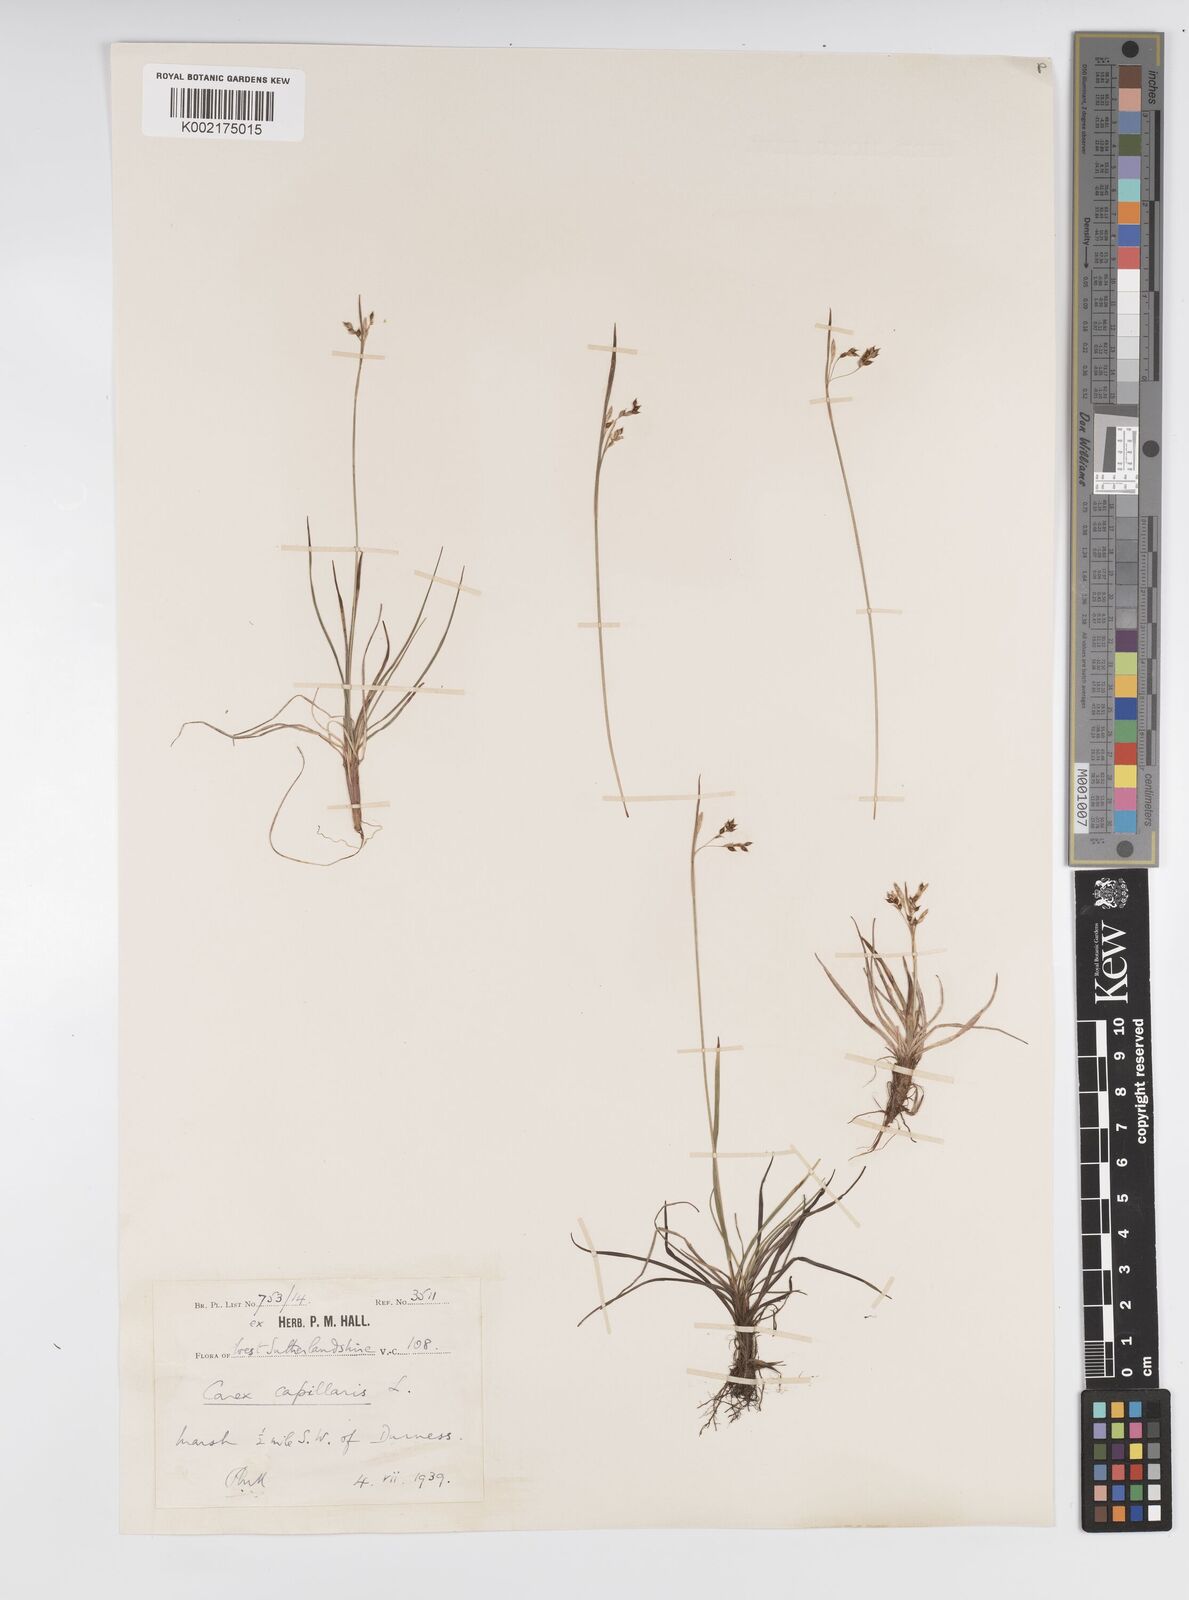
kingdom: Plantae
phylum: Tracheophyta
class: Liliopsida
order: Poales
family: Cyperaceae
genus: Carex
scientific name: Carex capillaris
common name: Hair sedge
